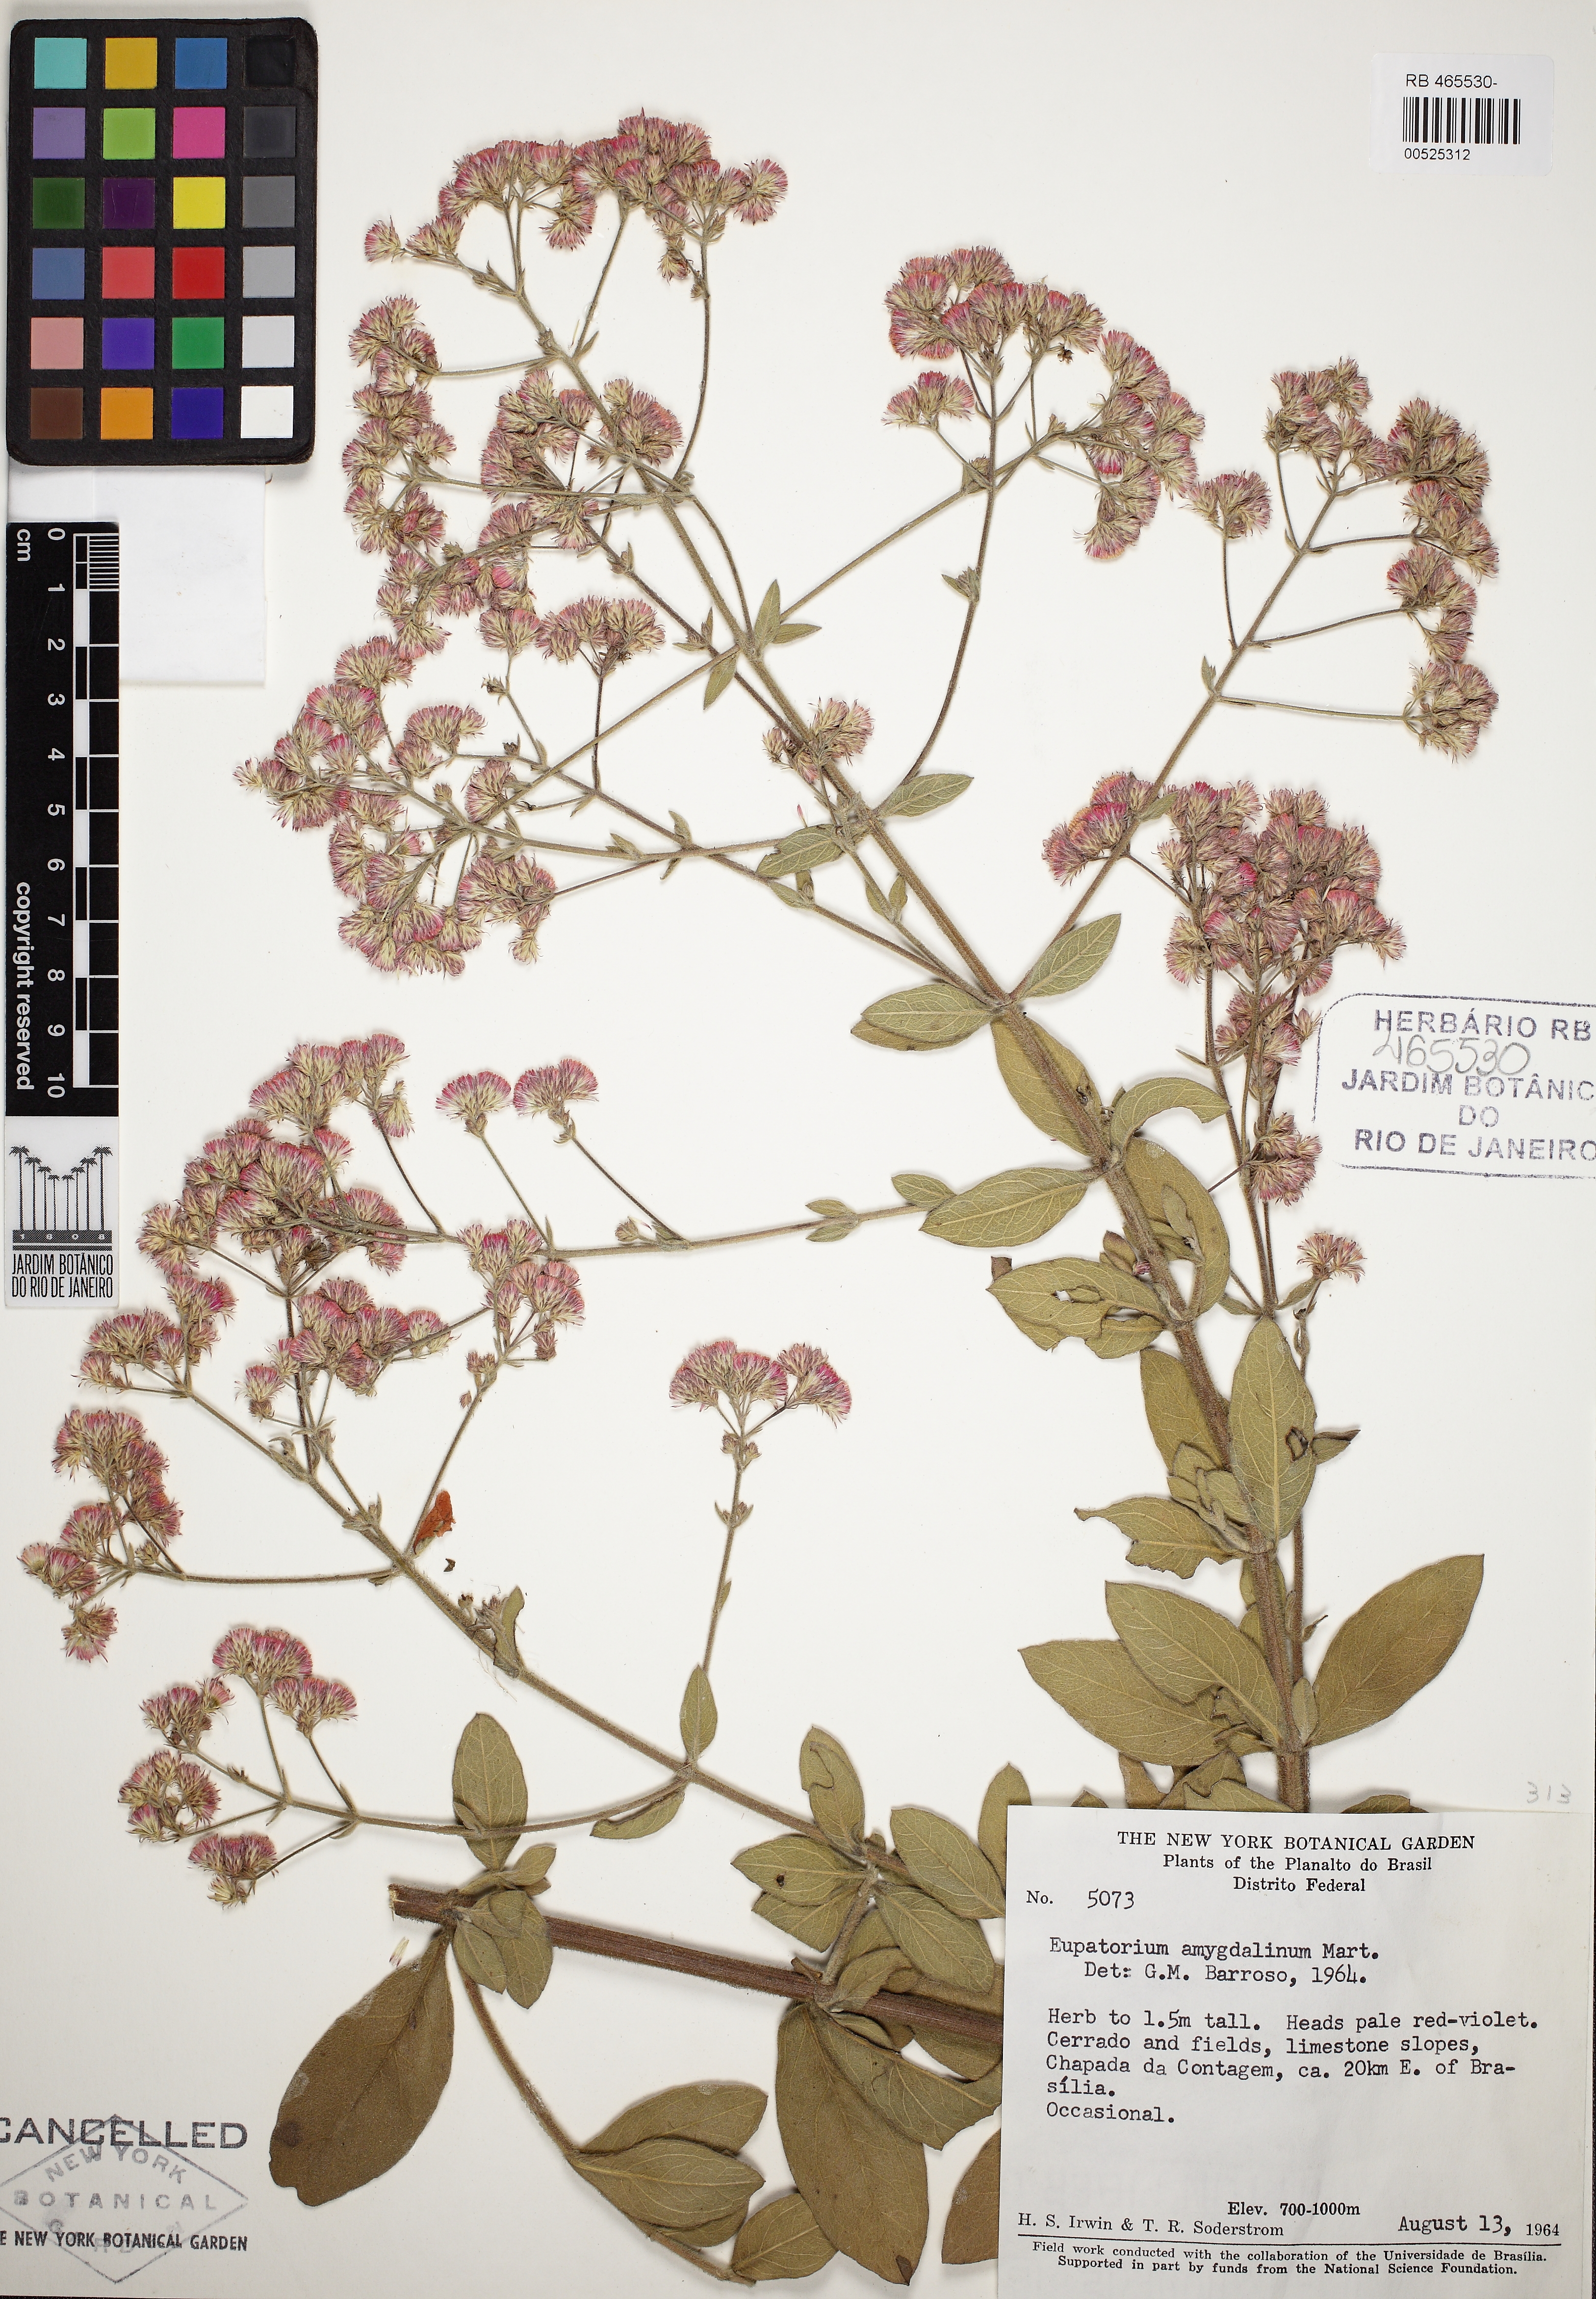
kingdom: Plantae
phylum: Tracheophyta
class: Magnoliopsida
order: Asterales
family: Asteraceae
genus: Ayapana
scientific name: Ayapana amygdalina
